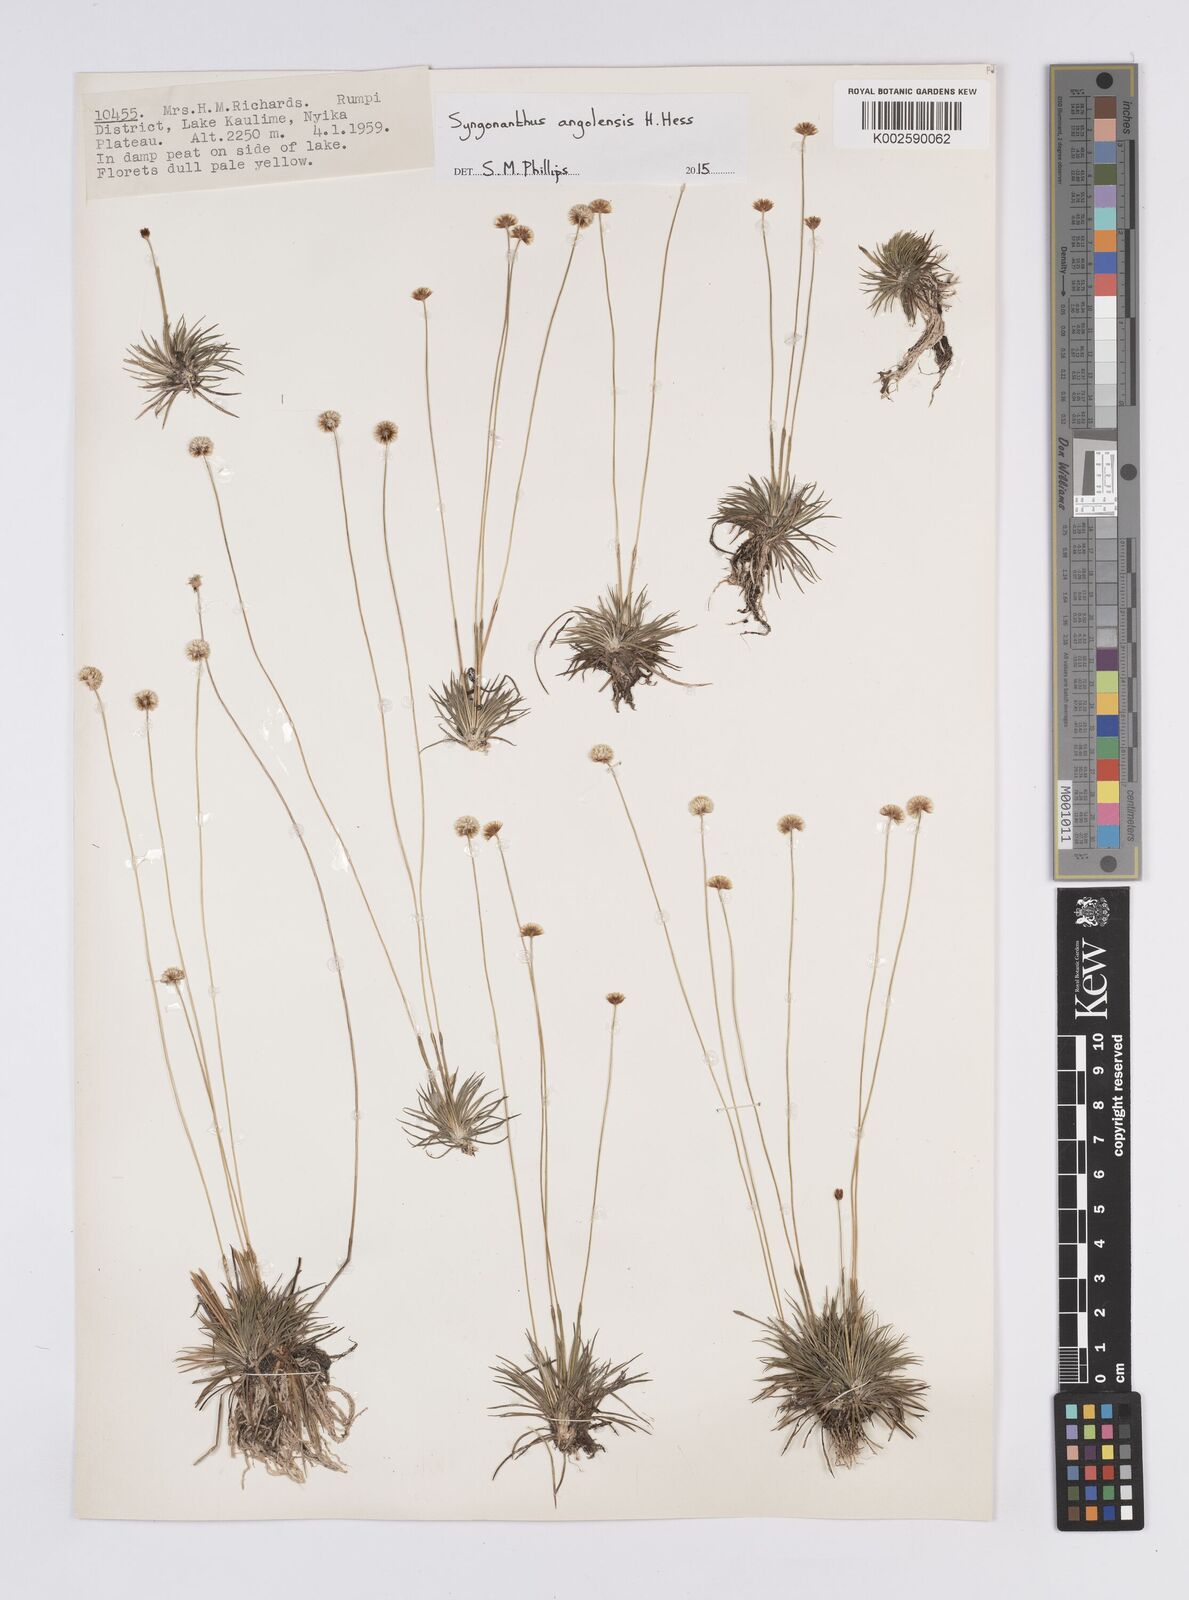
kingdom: Plantae
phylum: Tracheophyta
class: Liliopsida
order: Poales
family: Eriocaulaceae
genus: Syngonanthus
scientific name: Syngonanthus angolensis
